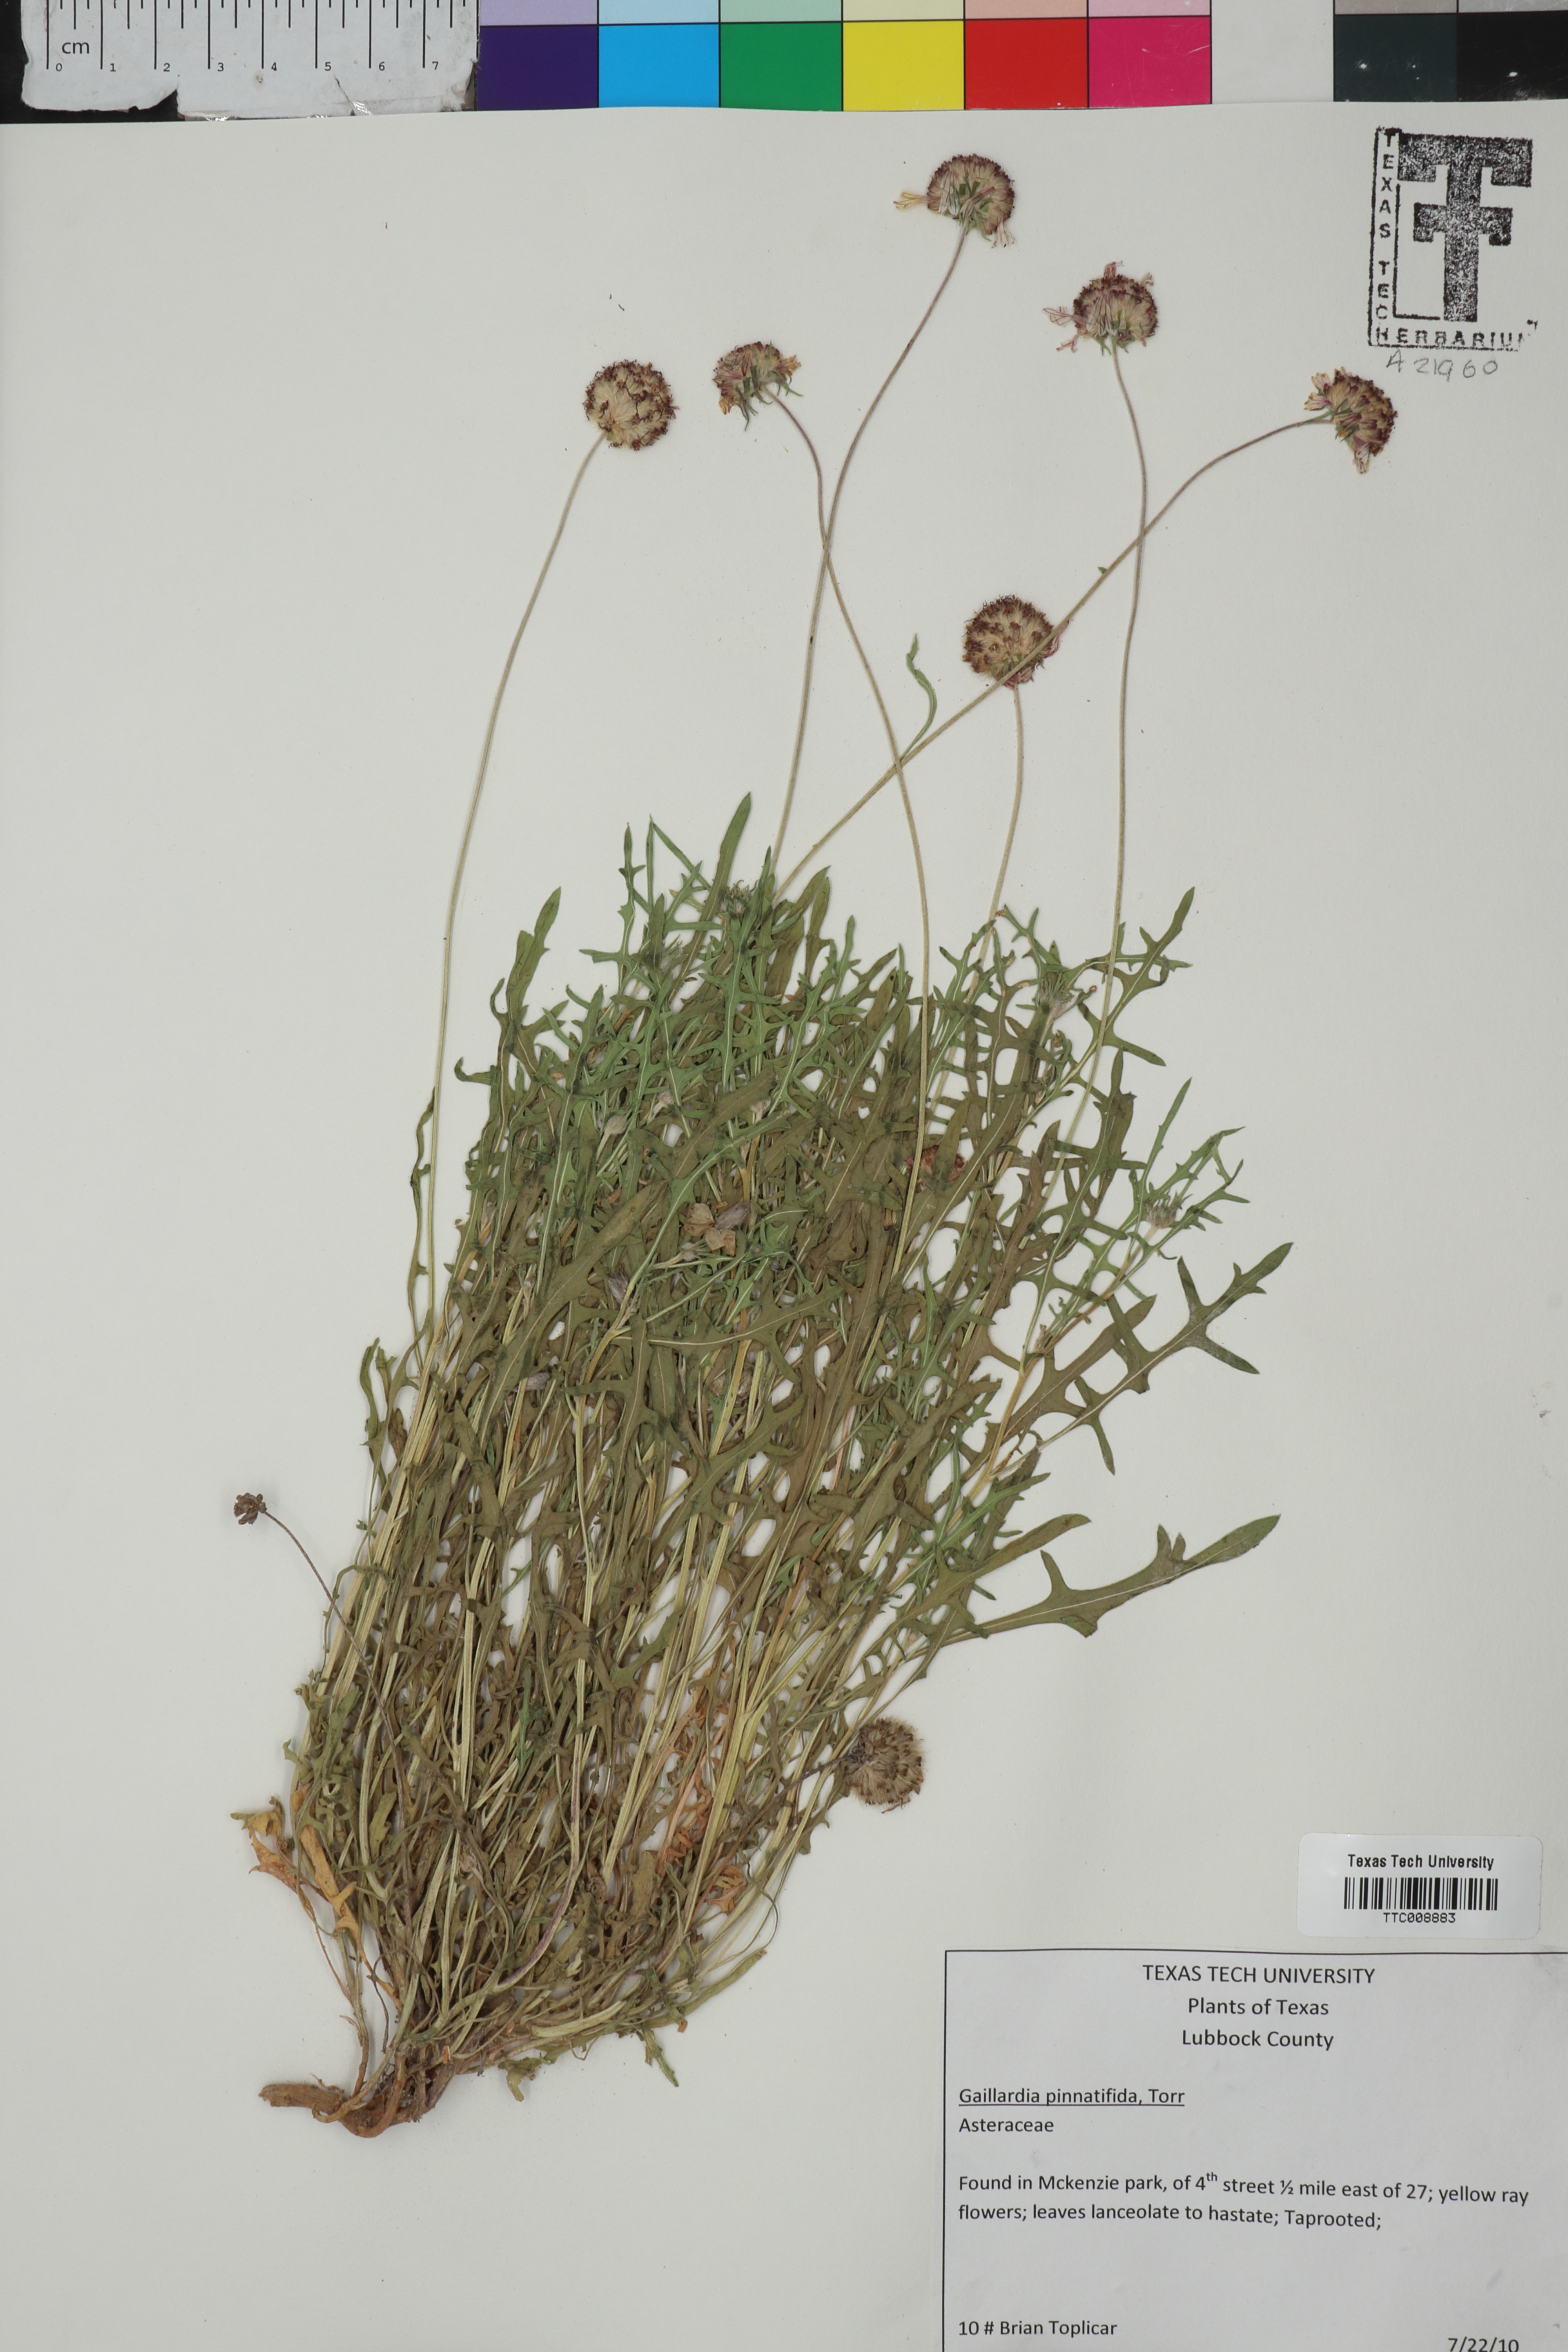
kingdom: Plantae
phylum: Tracheophyta
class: Magnoliopsida
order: Asterales
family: Asteraceae
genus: Gaillardia
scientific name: Gaillardia pinnatifida
